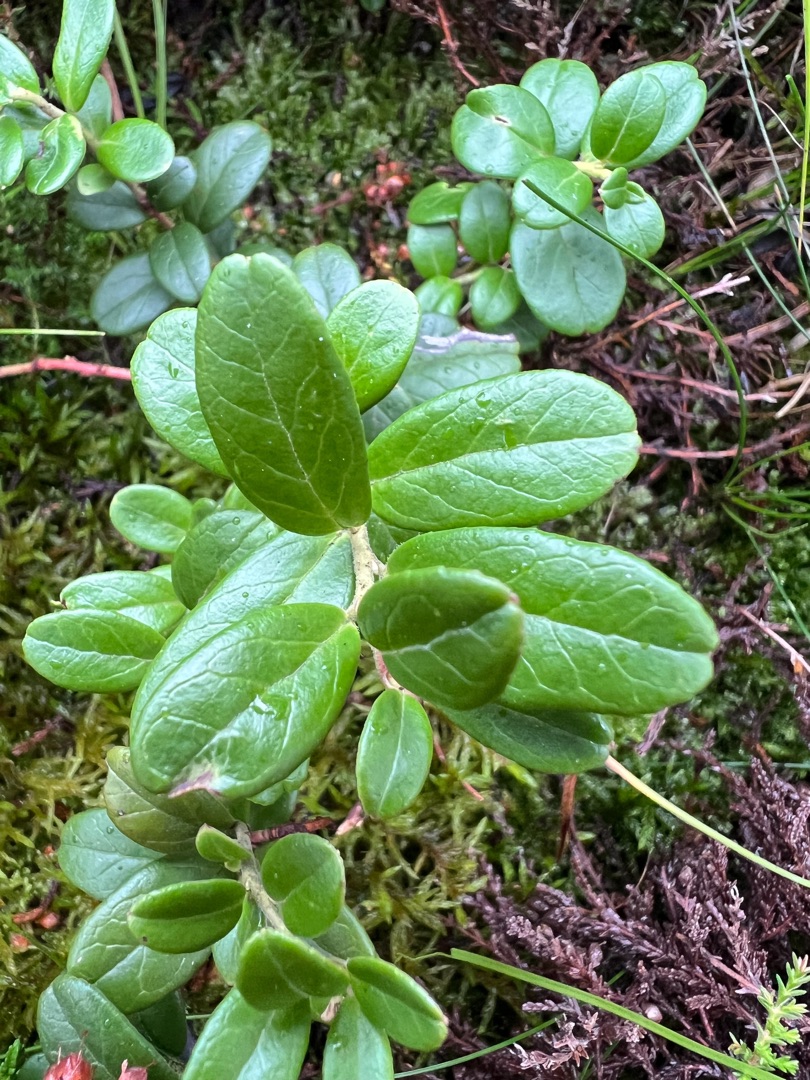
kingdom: Plantae
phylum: Tracheophyta
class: Magnoliopsida
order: Ericales
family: Ericaceae
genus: Vaccinium
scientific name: Vaccinium vitis-idaea
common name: Tyttebær
